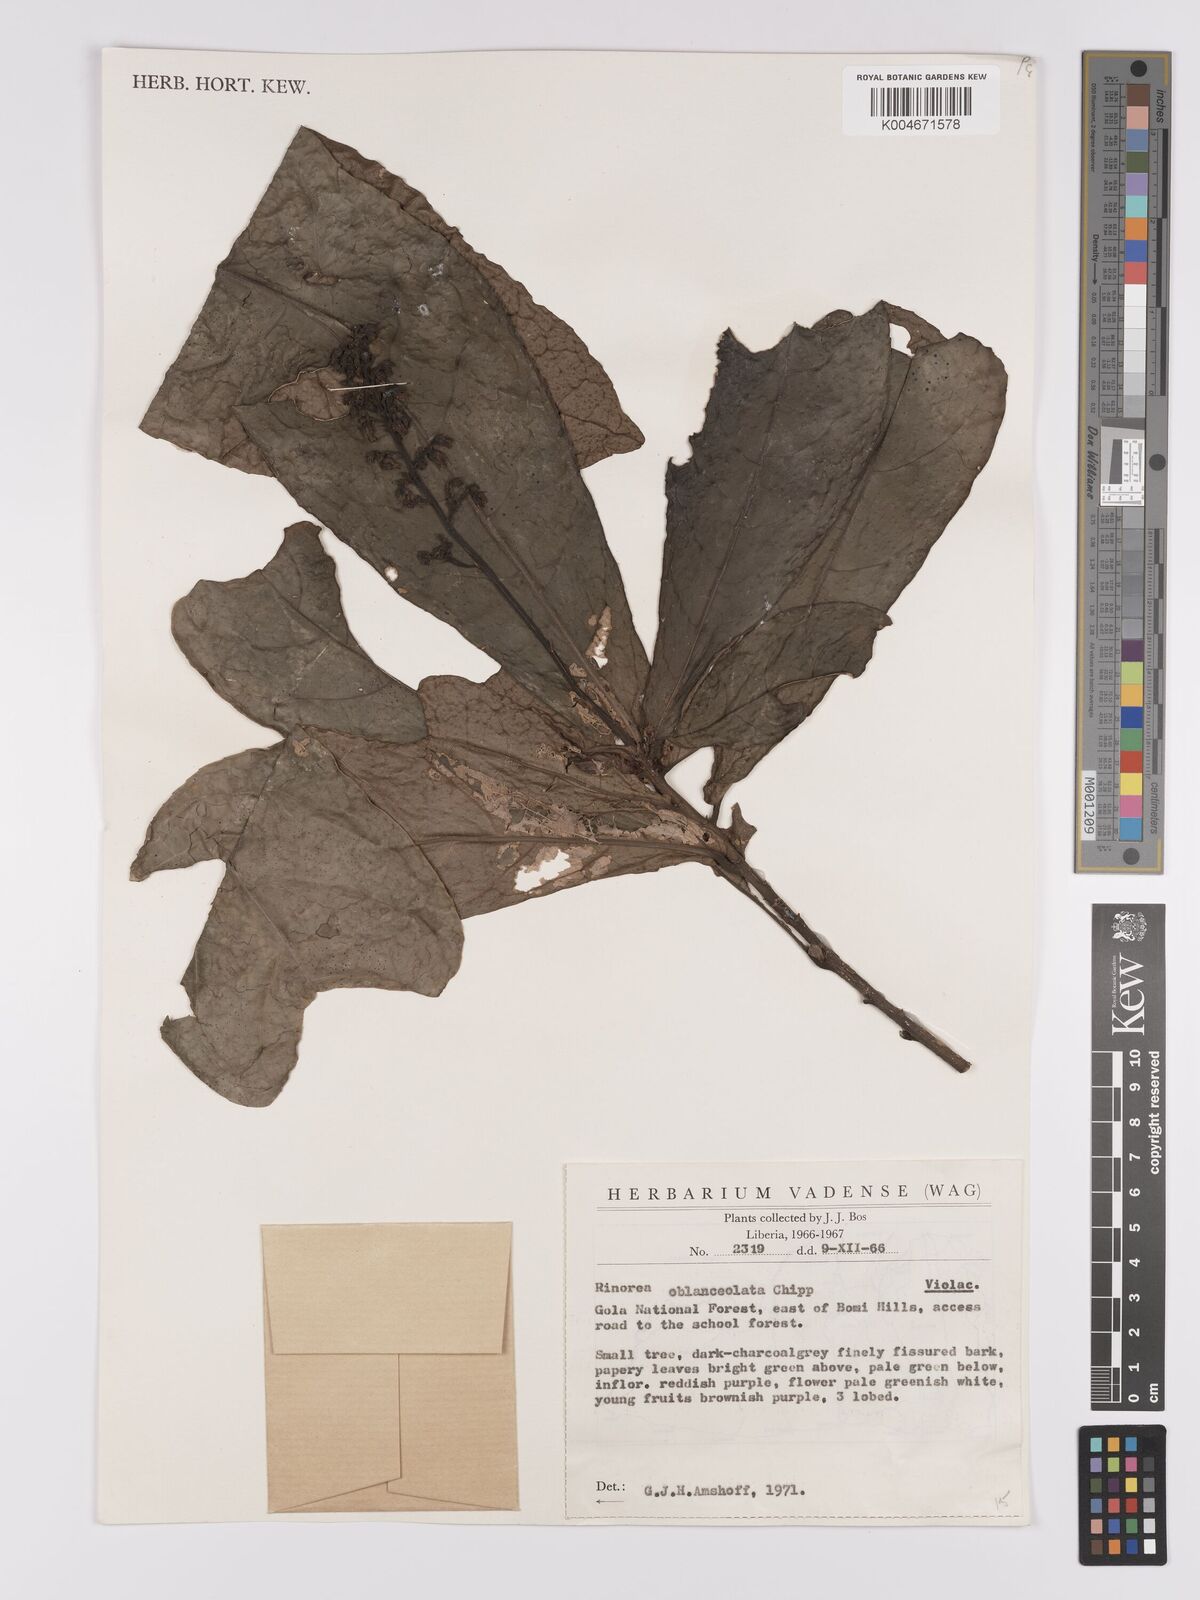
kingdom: Plantae
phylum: Tracheophyta
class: Magnoliopsida
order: Malpighiales
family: Violaceae
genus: Rinorea
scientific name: Rinorea oblanceolata
